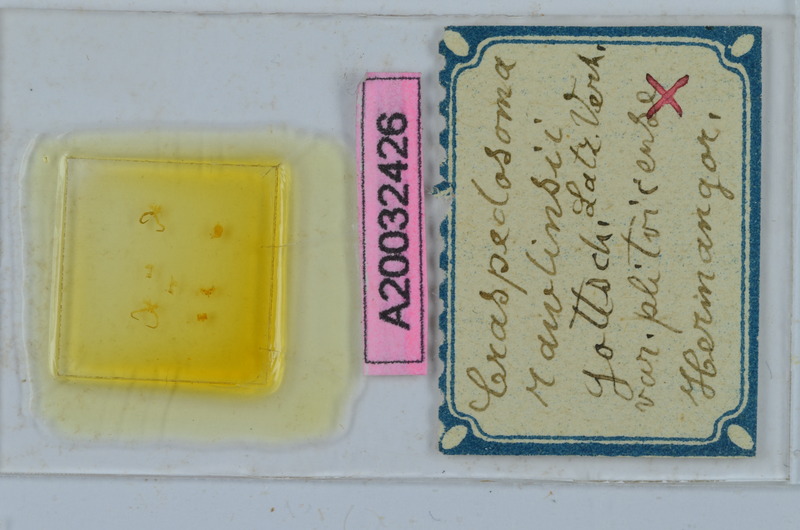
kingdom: Animalia
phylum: Arthropoda
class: Diplopoda
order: Chordeumatida
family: Craspedosomatidae
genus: Craspedosoma
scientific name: Craspedosoma slavum
